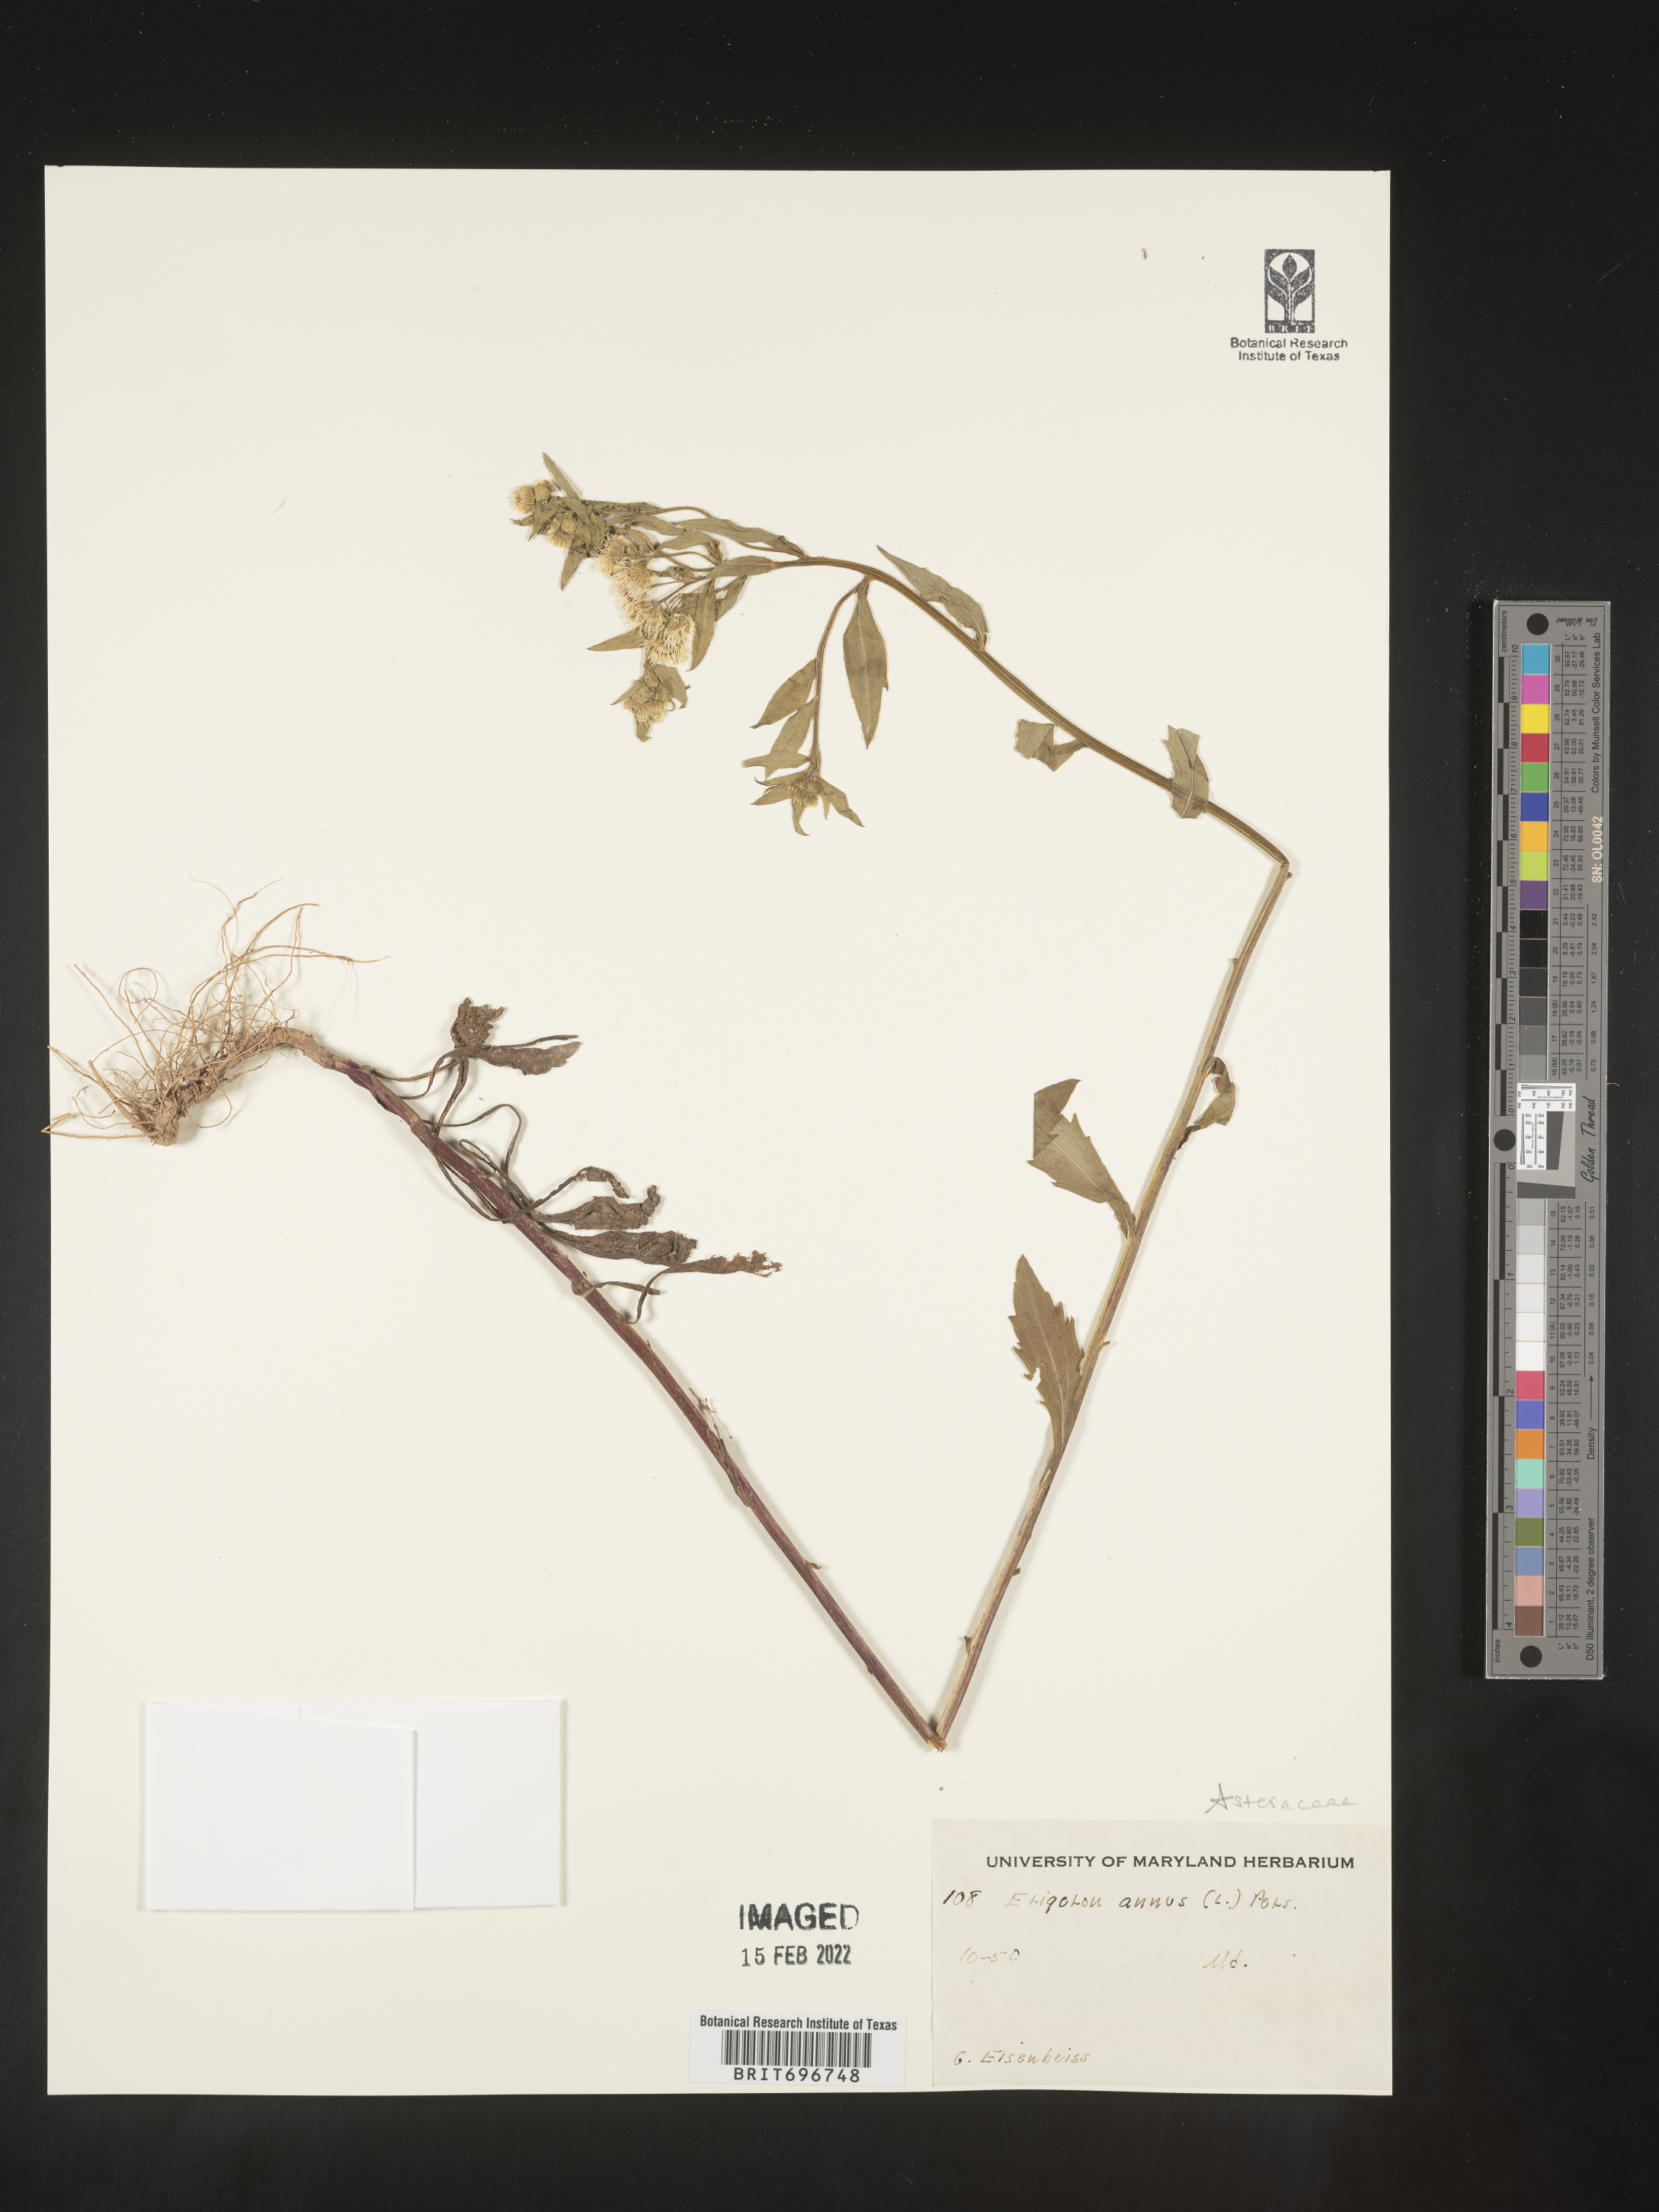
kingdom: Plantae
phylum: Tracheophyta
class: Magnoliopsida
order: Asterales
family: Asteraceae
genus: Erigeron
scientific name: Erigeron annuus
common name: Tall fleabane
